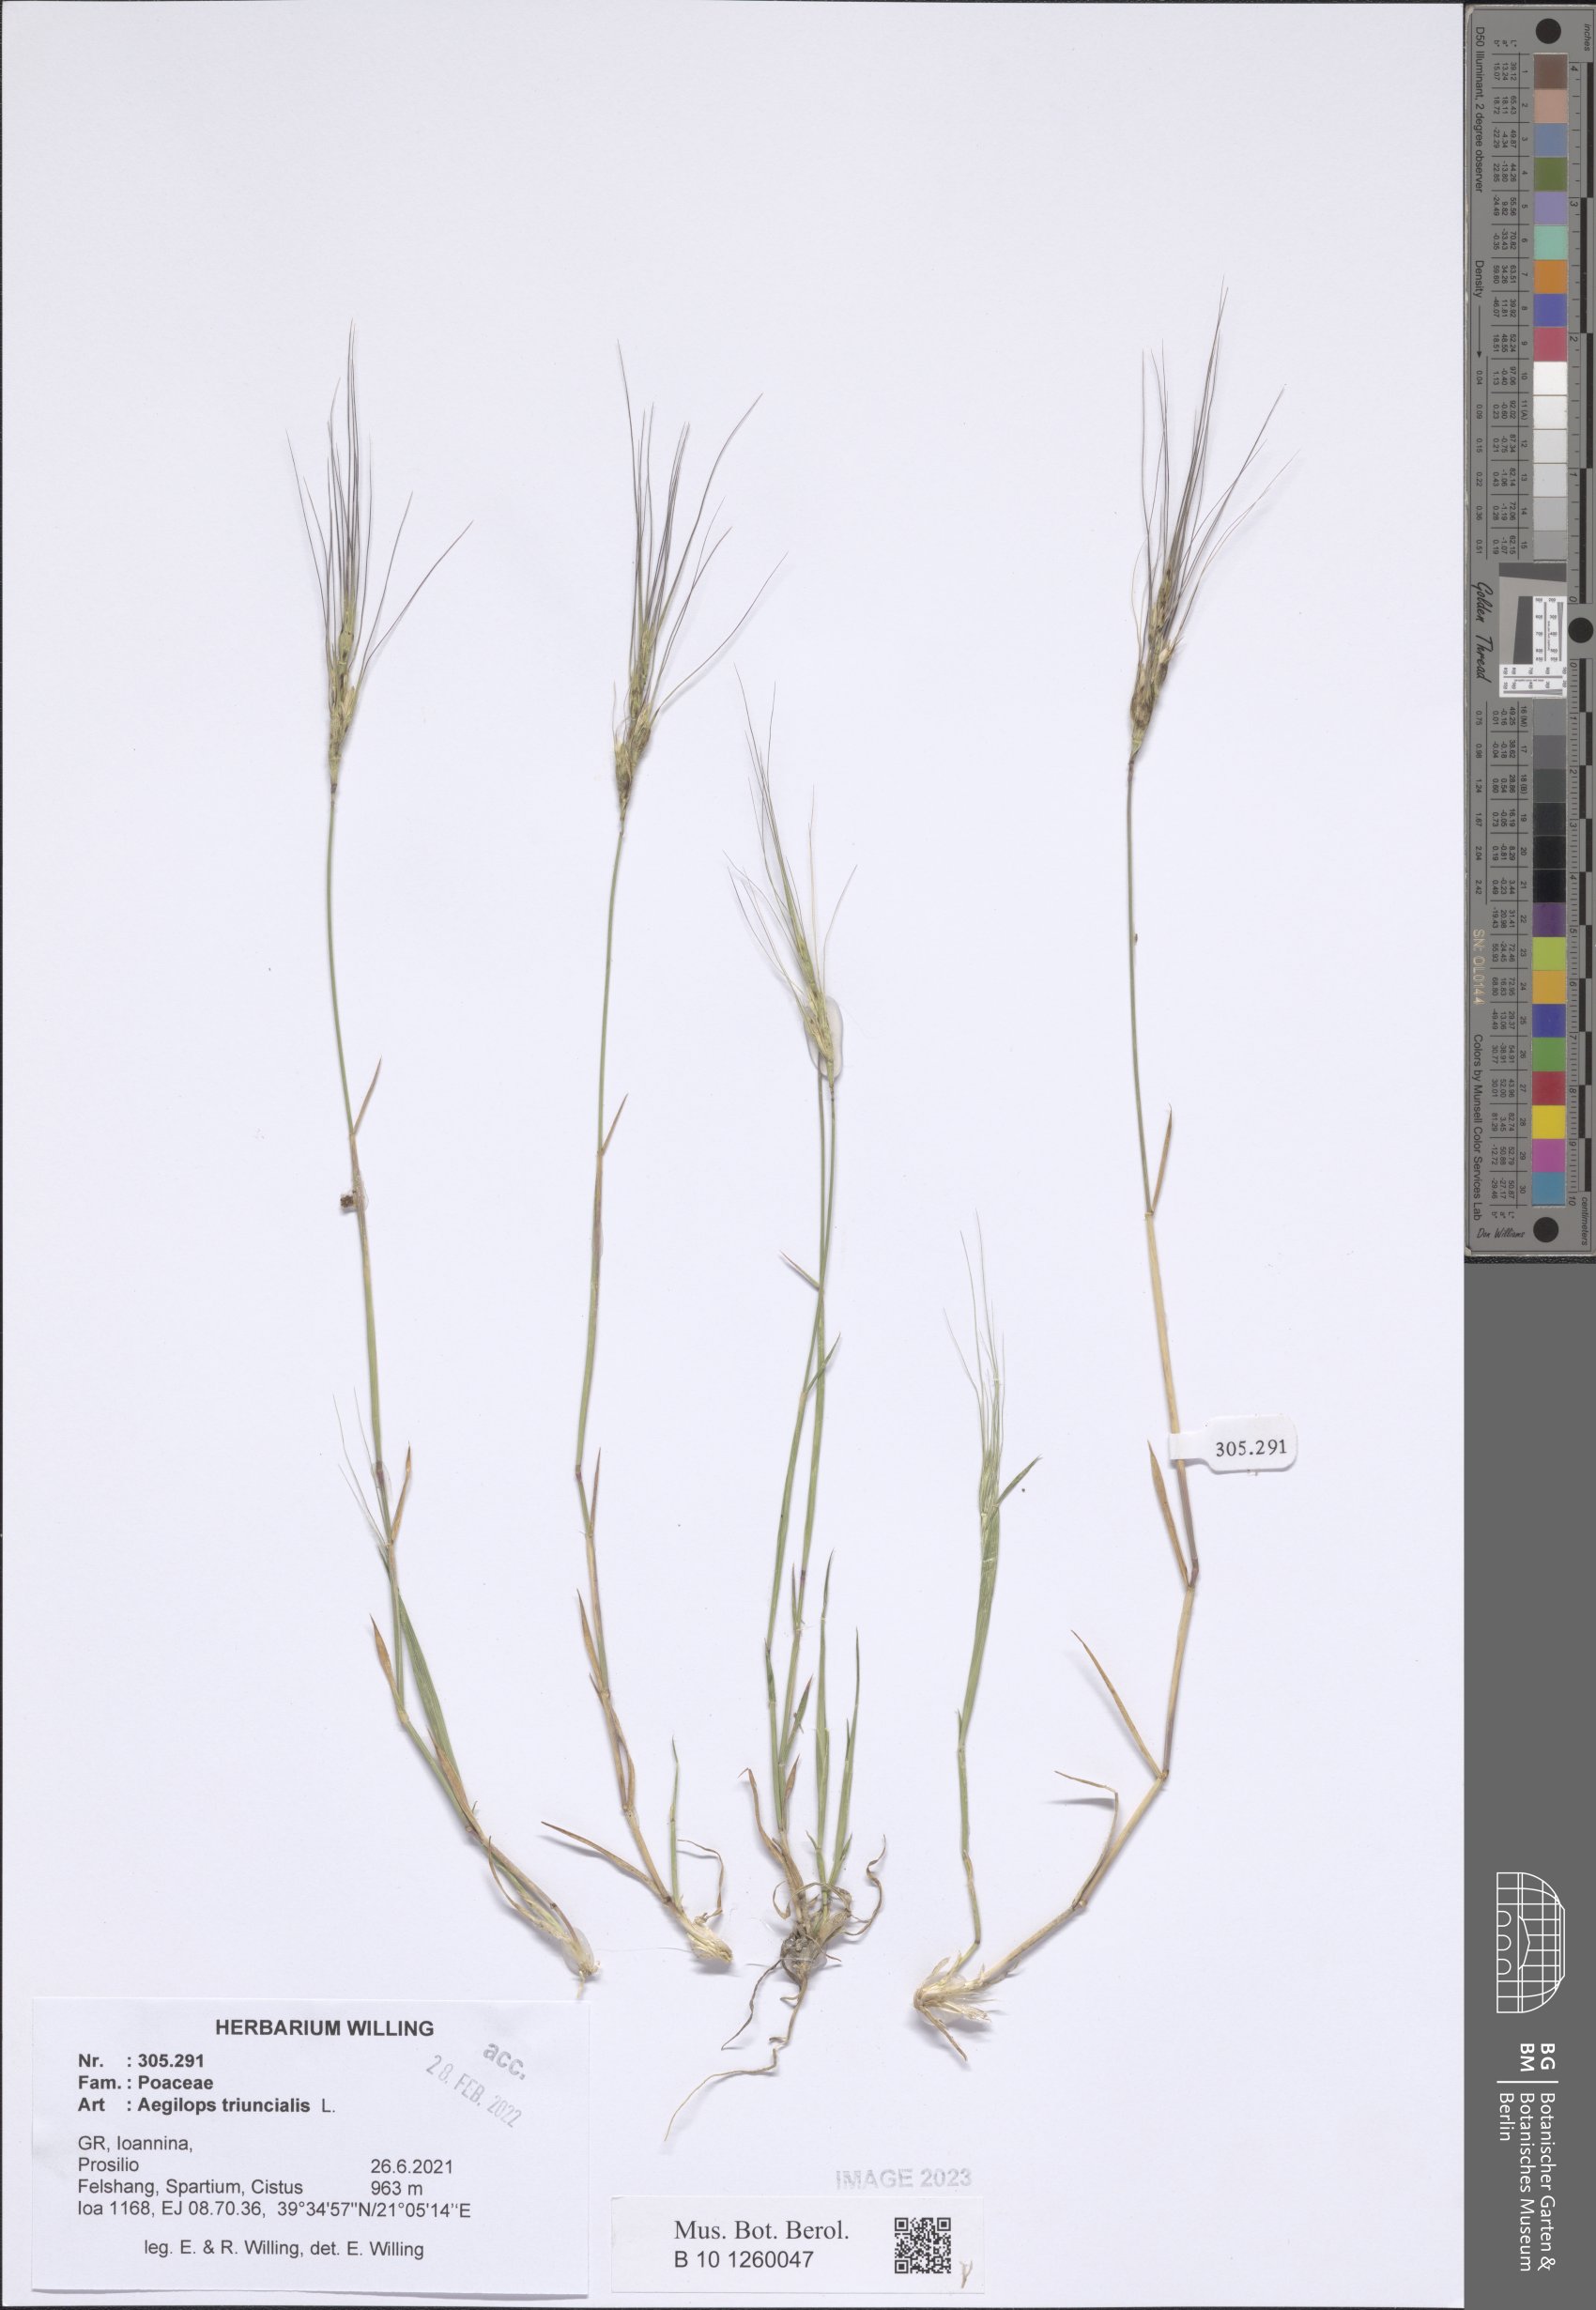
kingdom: Plantae
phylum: Tracheophyta
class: Liliopsida
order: Poales
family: Poaceae
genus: Aegilops
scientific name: Aegilops triuncialis
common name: Barb goat grass
